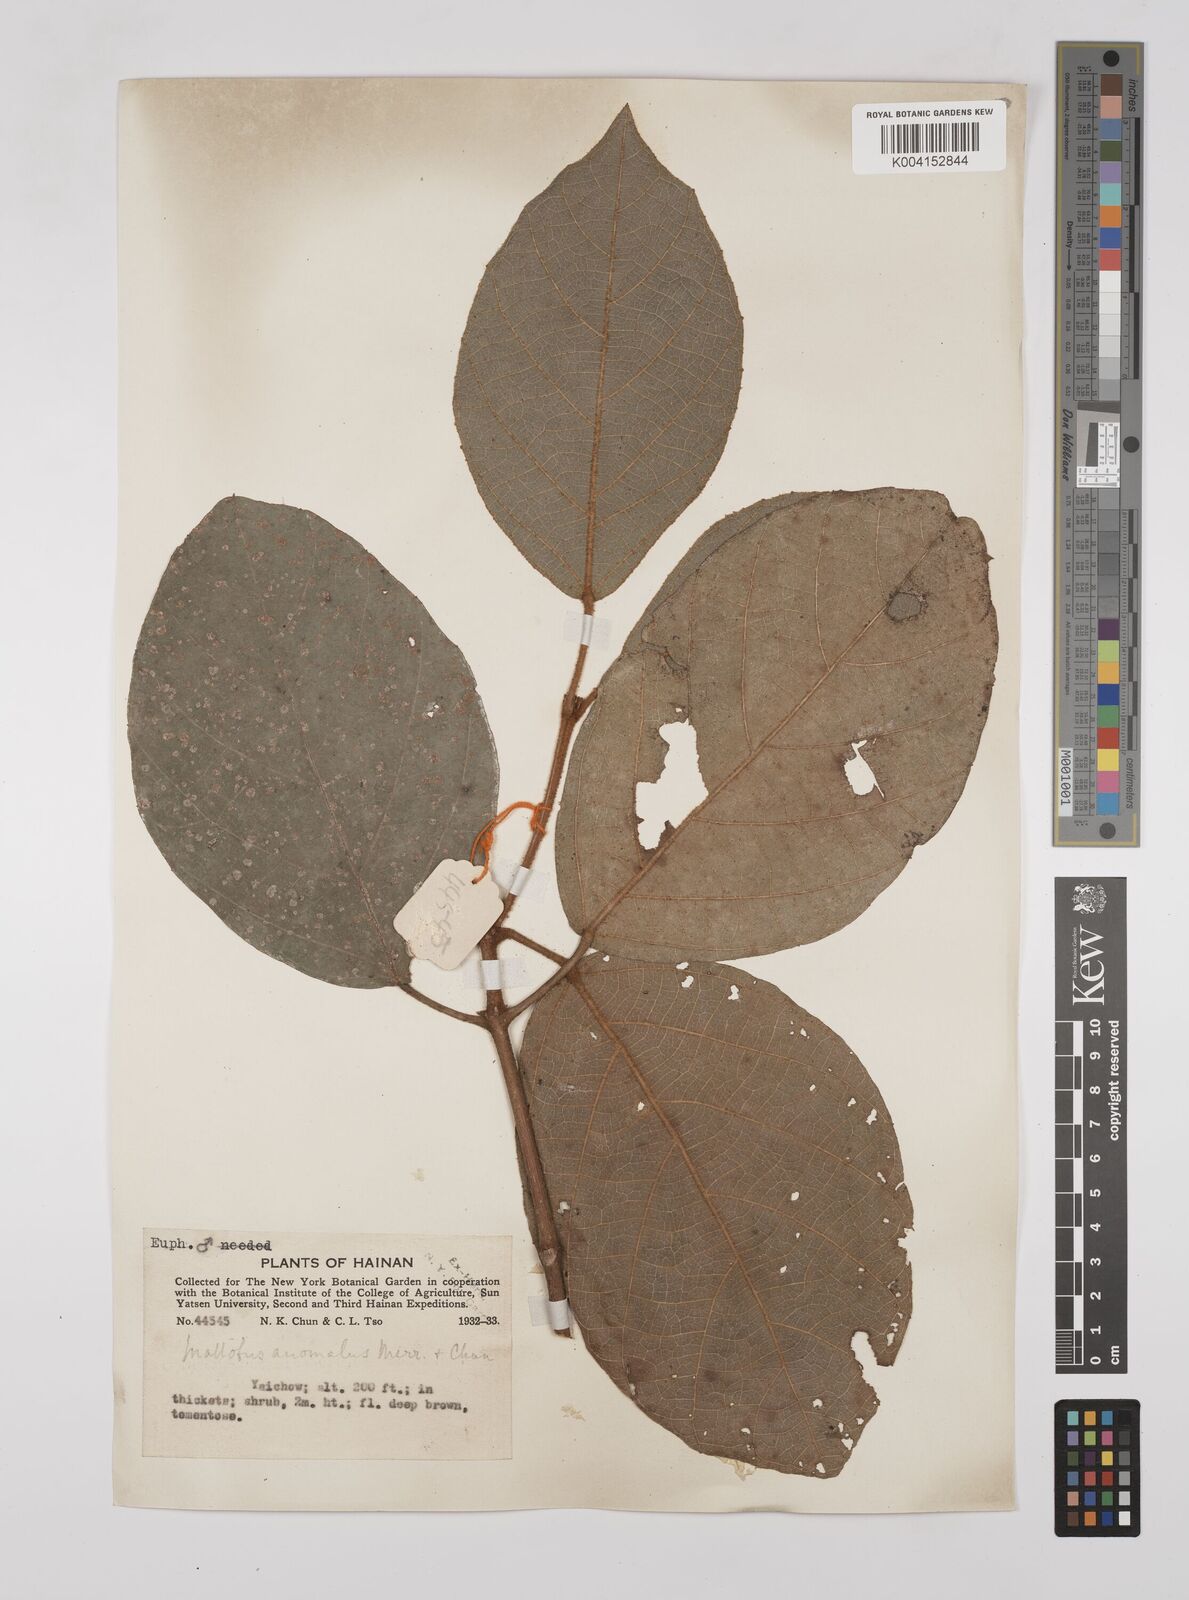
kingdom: Plantae
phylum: Tracheophyta
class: Magnoliopsida
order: Malpighiales
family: Euphorbiaceae
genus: Mallotus
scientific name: Mallotus anomalus
